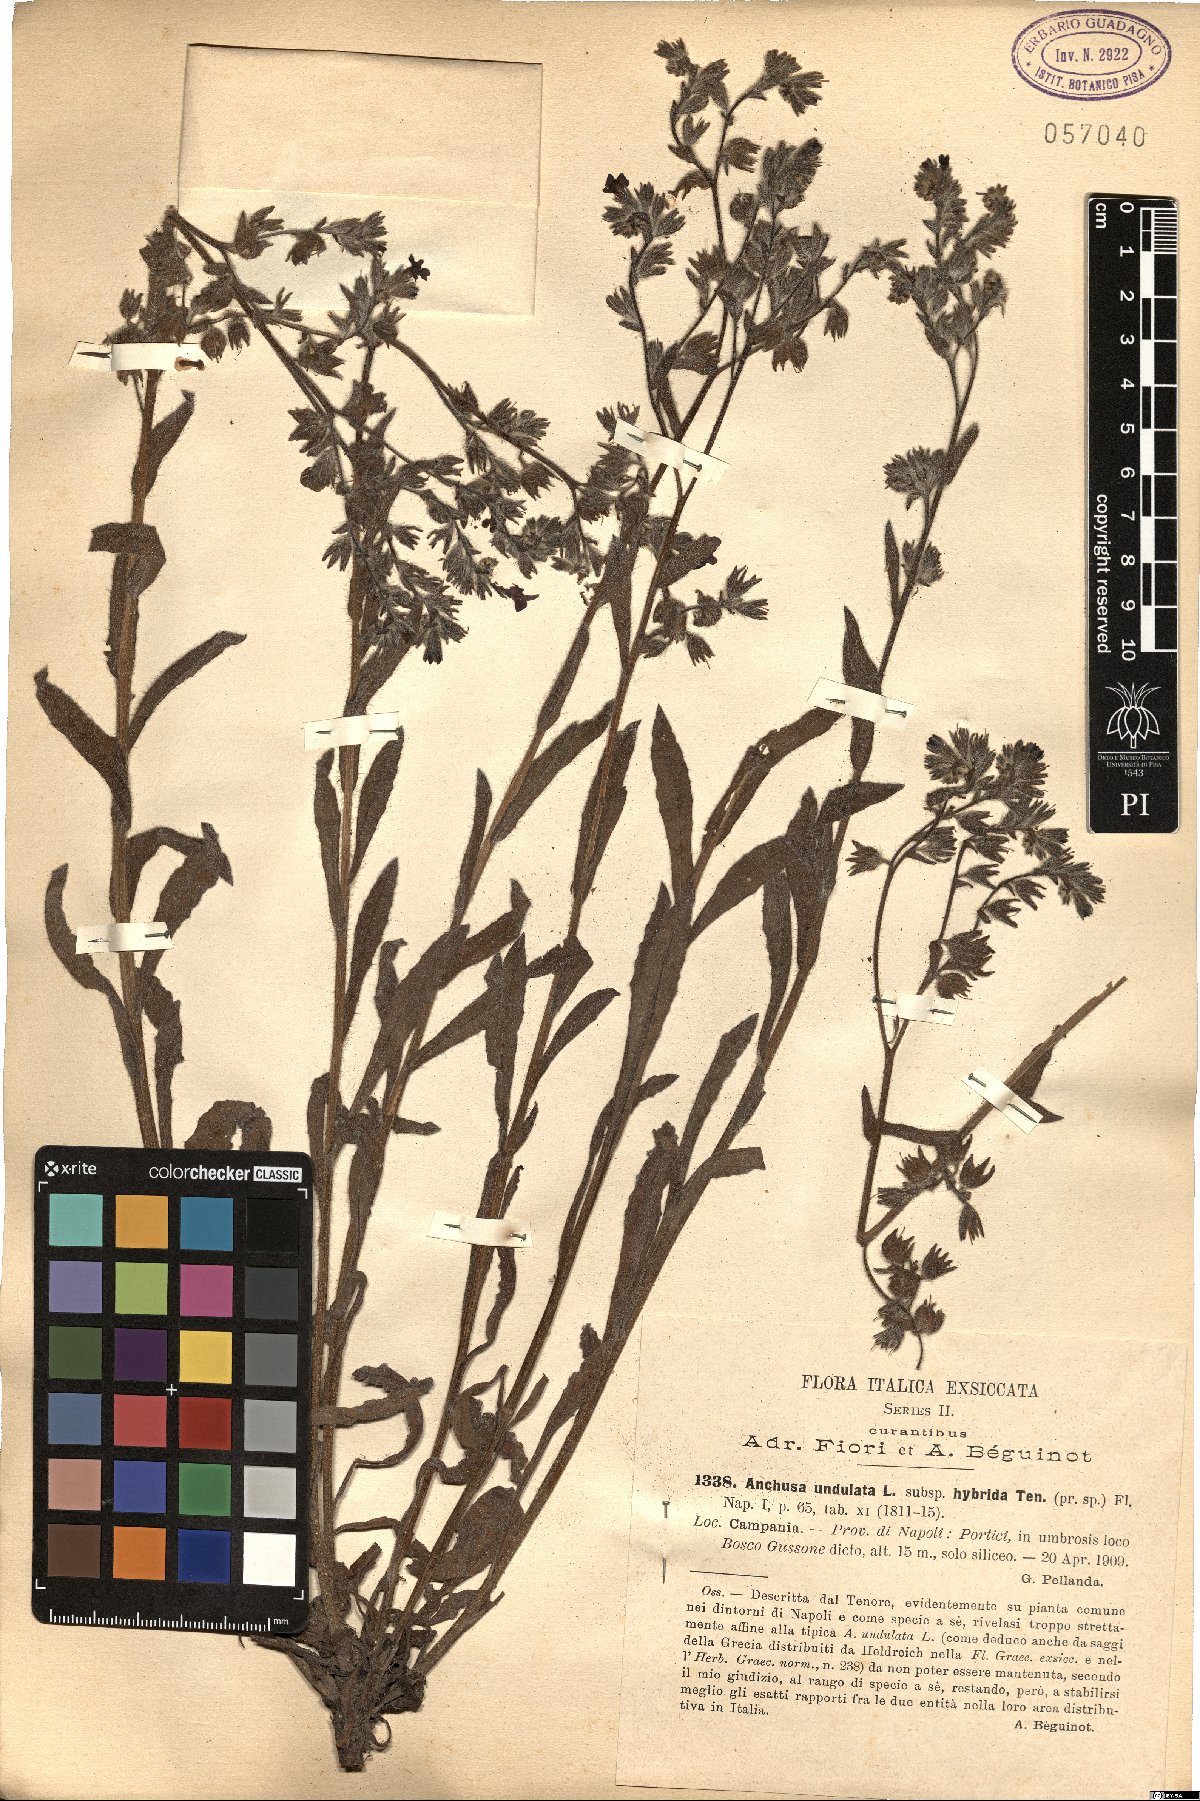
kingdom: Plantae
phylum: Tracheophyta
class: Magnoliopsida
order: Boraginales
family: Boraginaceae
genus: Anchusa
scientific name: Anchusa undulata
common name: Undulate alkanet
